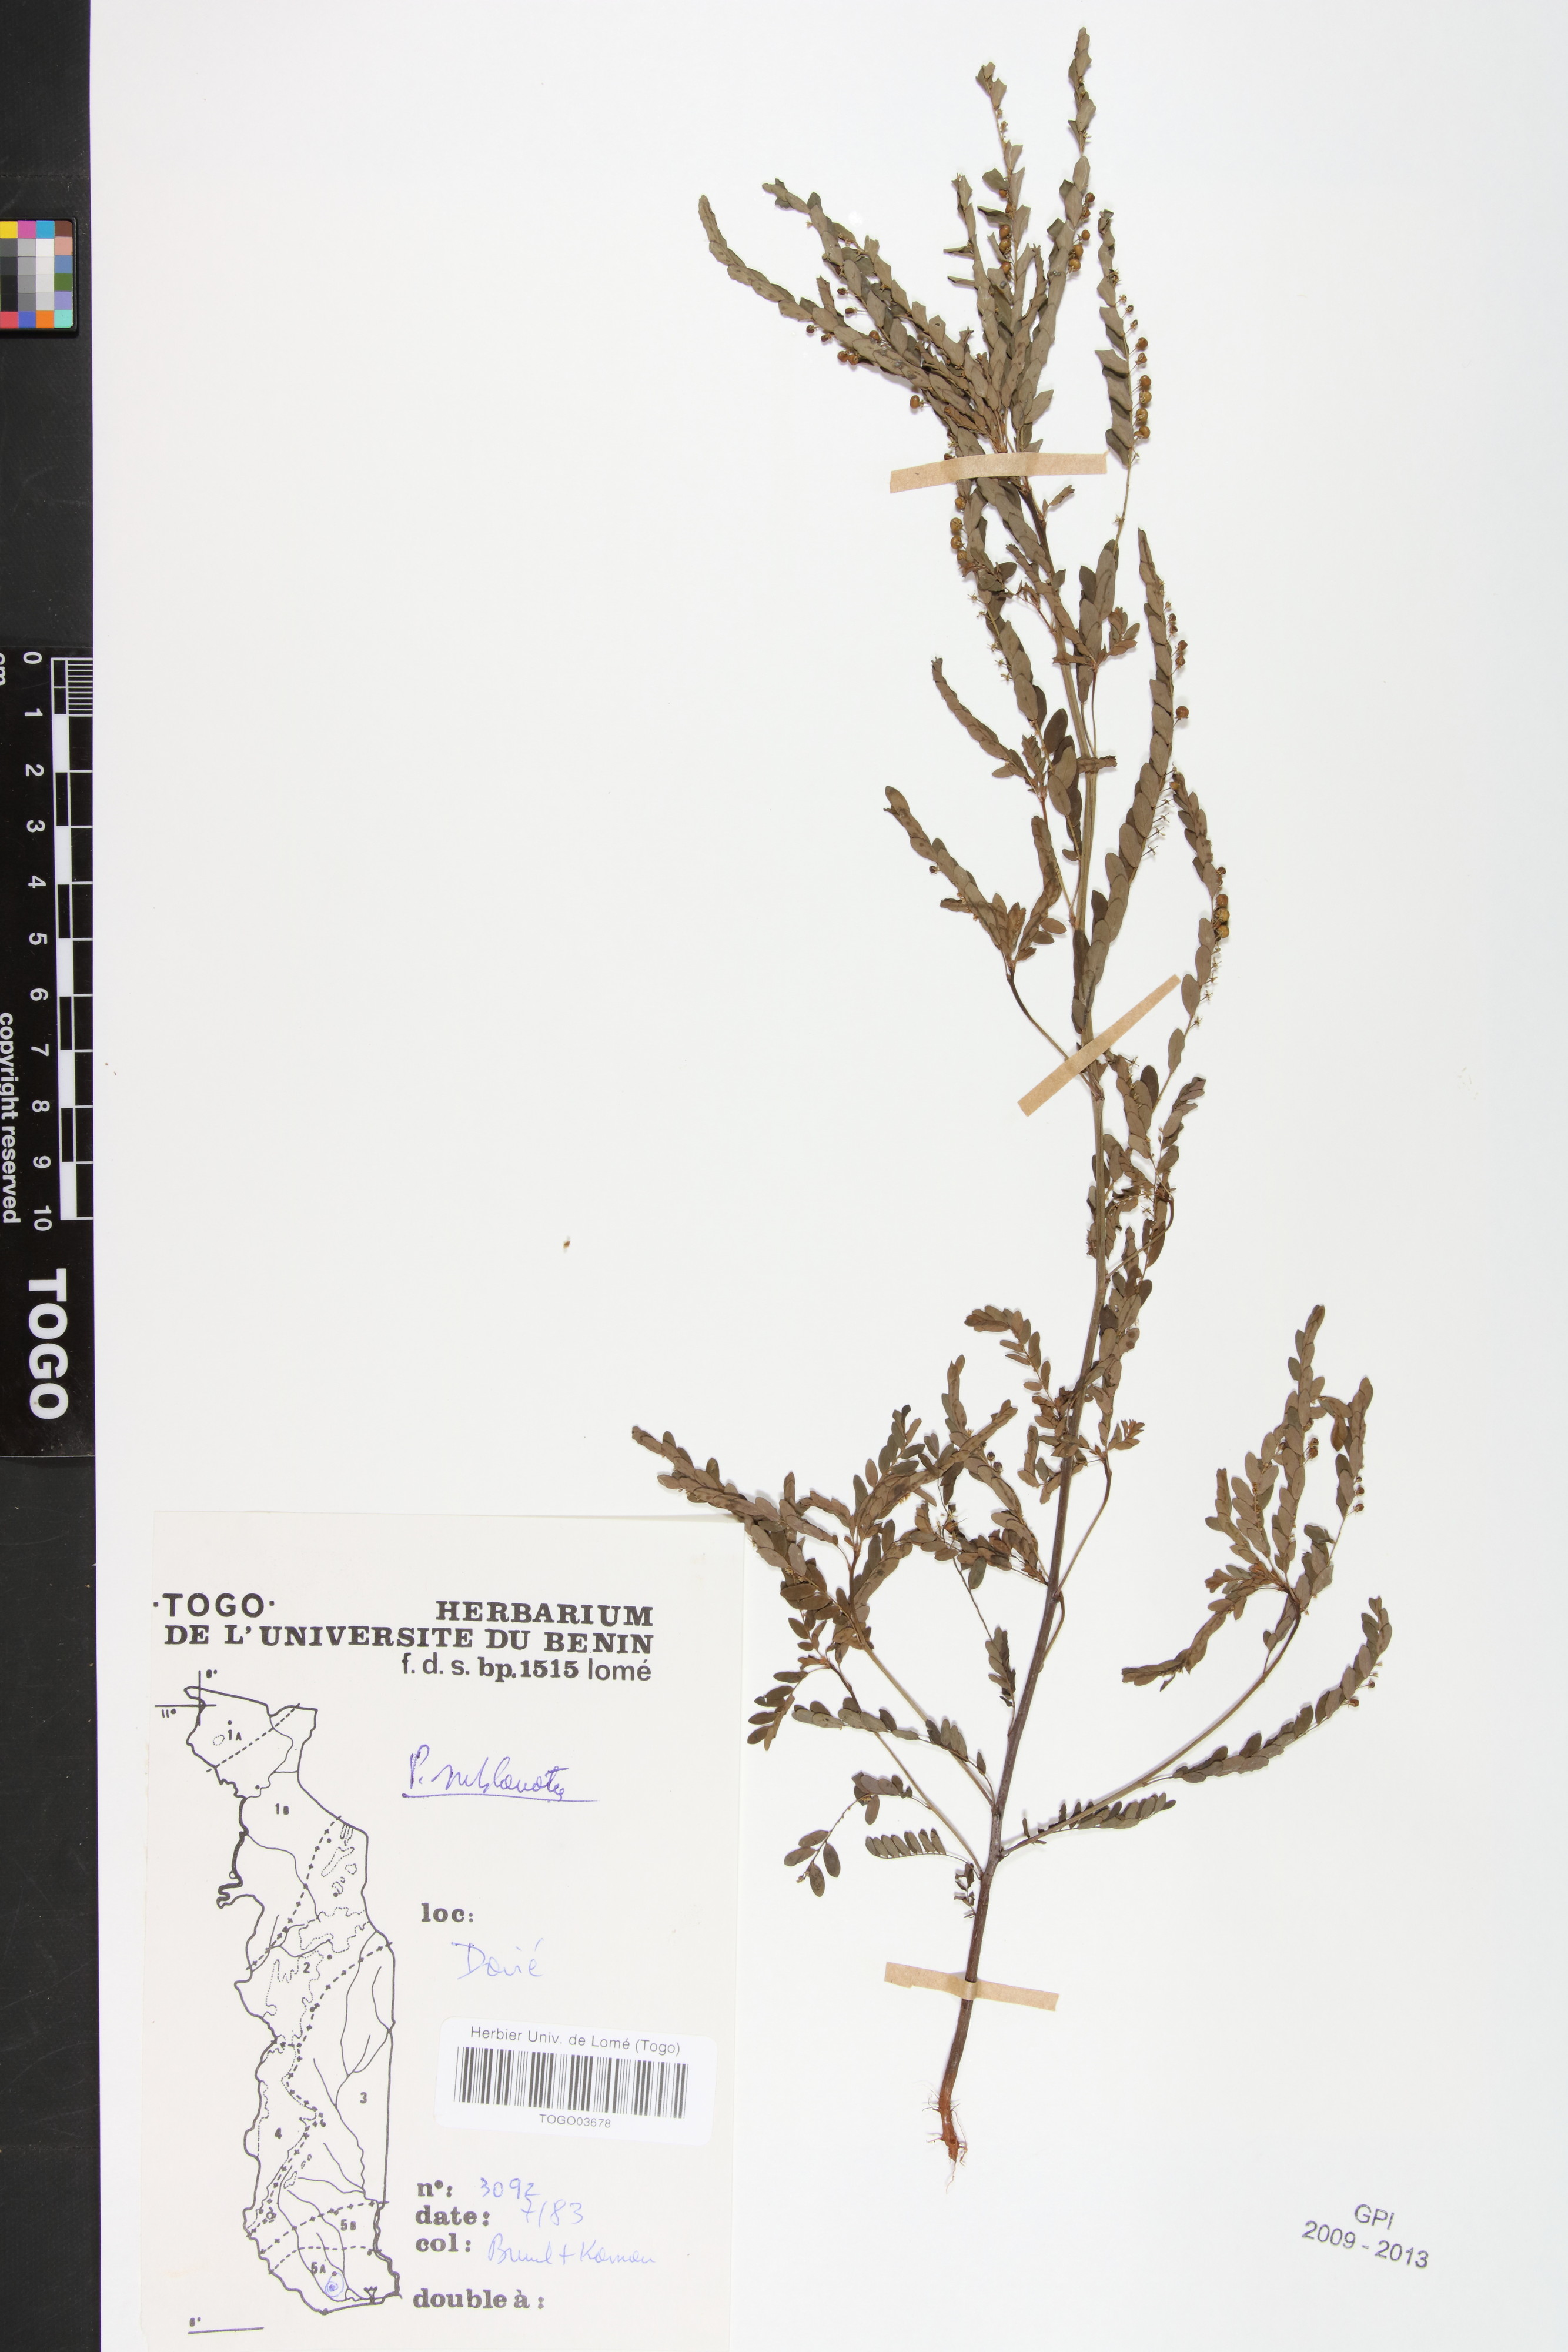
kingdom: Plantae
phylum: Tracheophyta
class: Magnoliopsida
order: Malpighiales
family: Phyllanthaceae
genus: Phyllanthus
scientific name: Phyllanthus sublanatus
